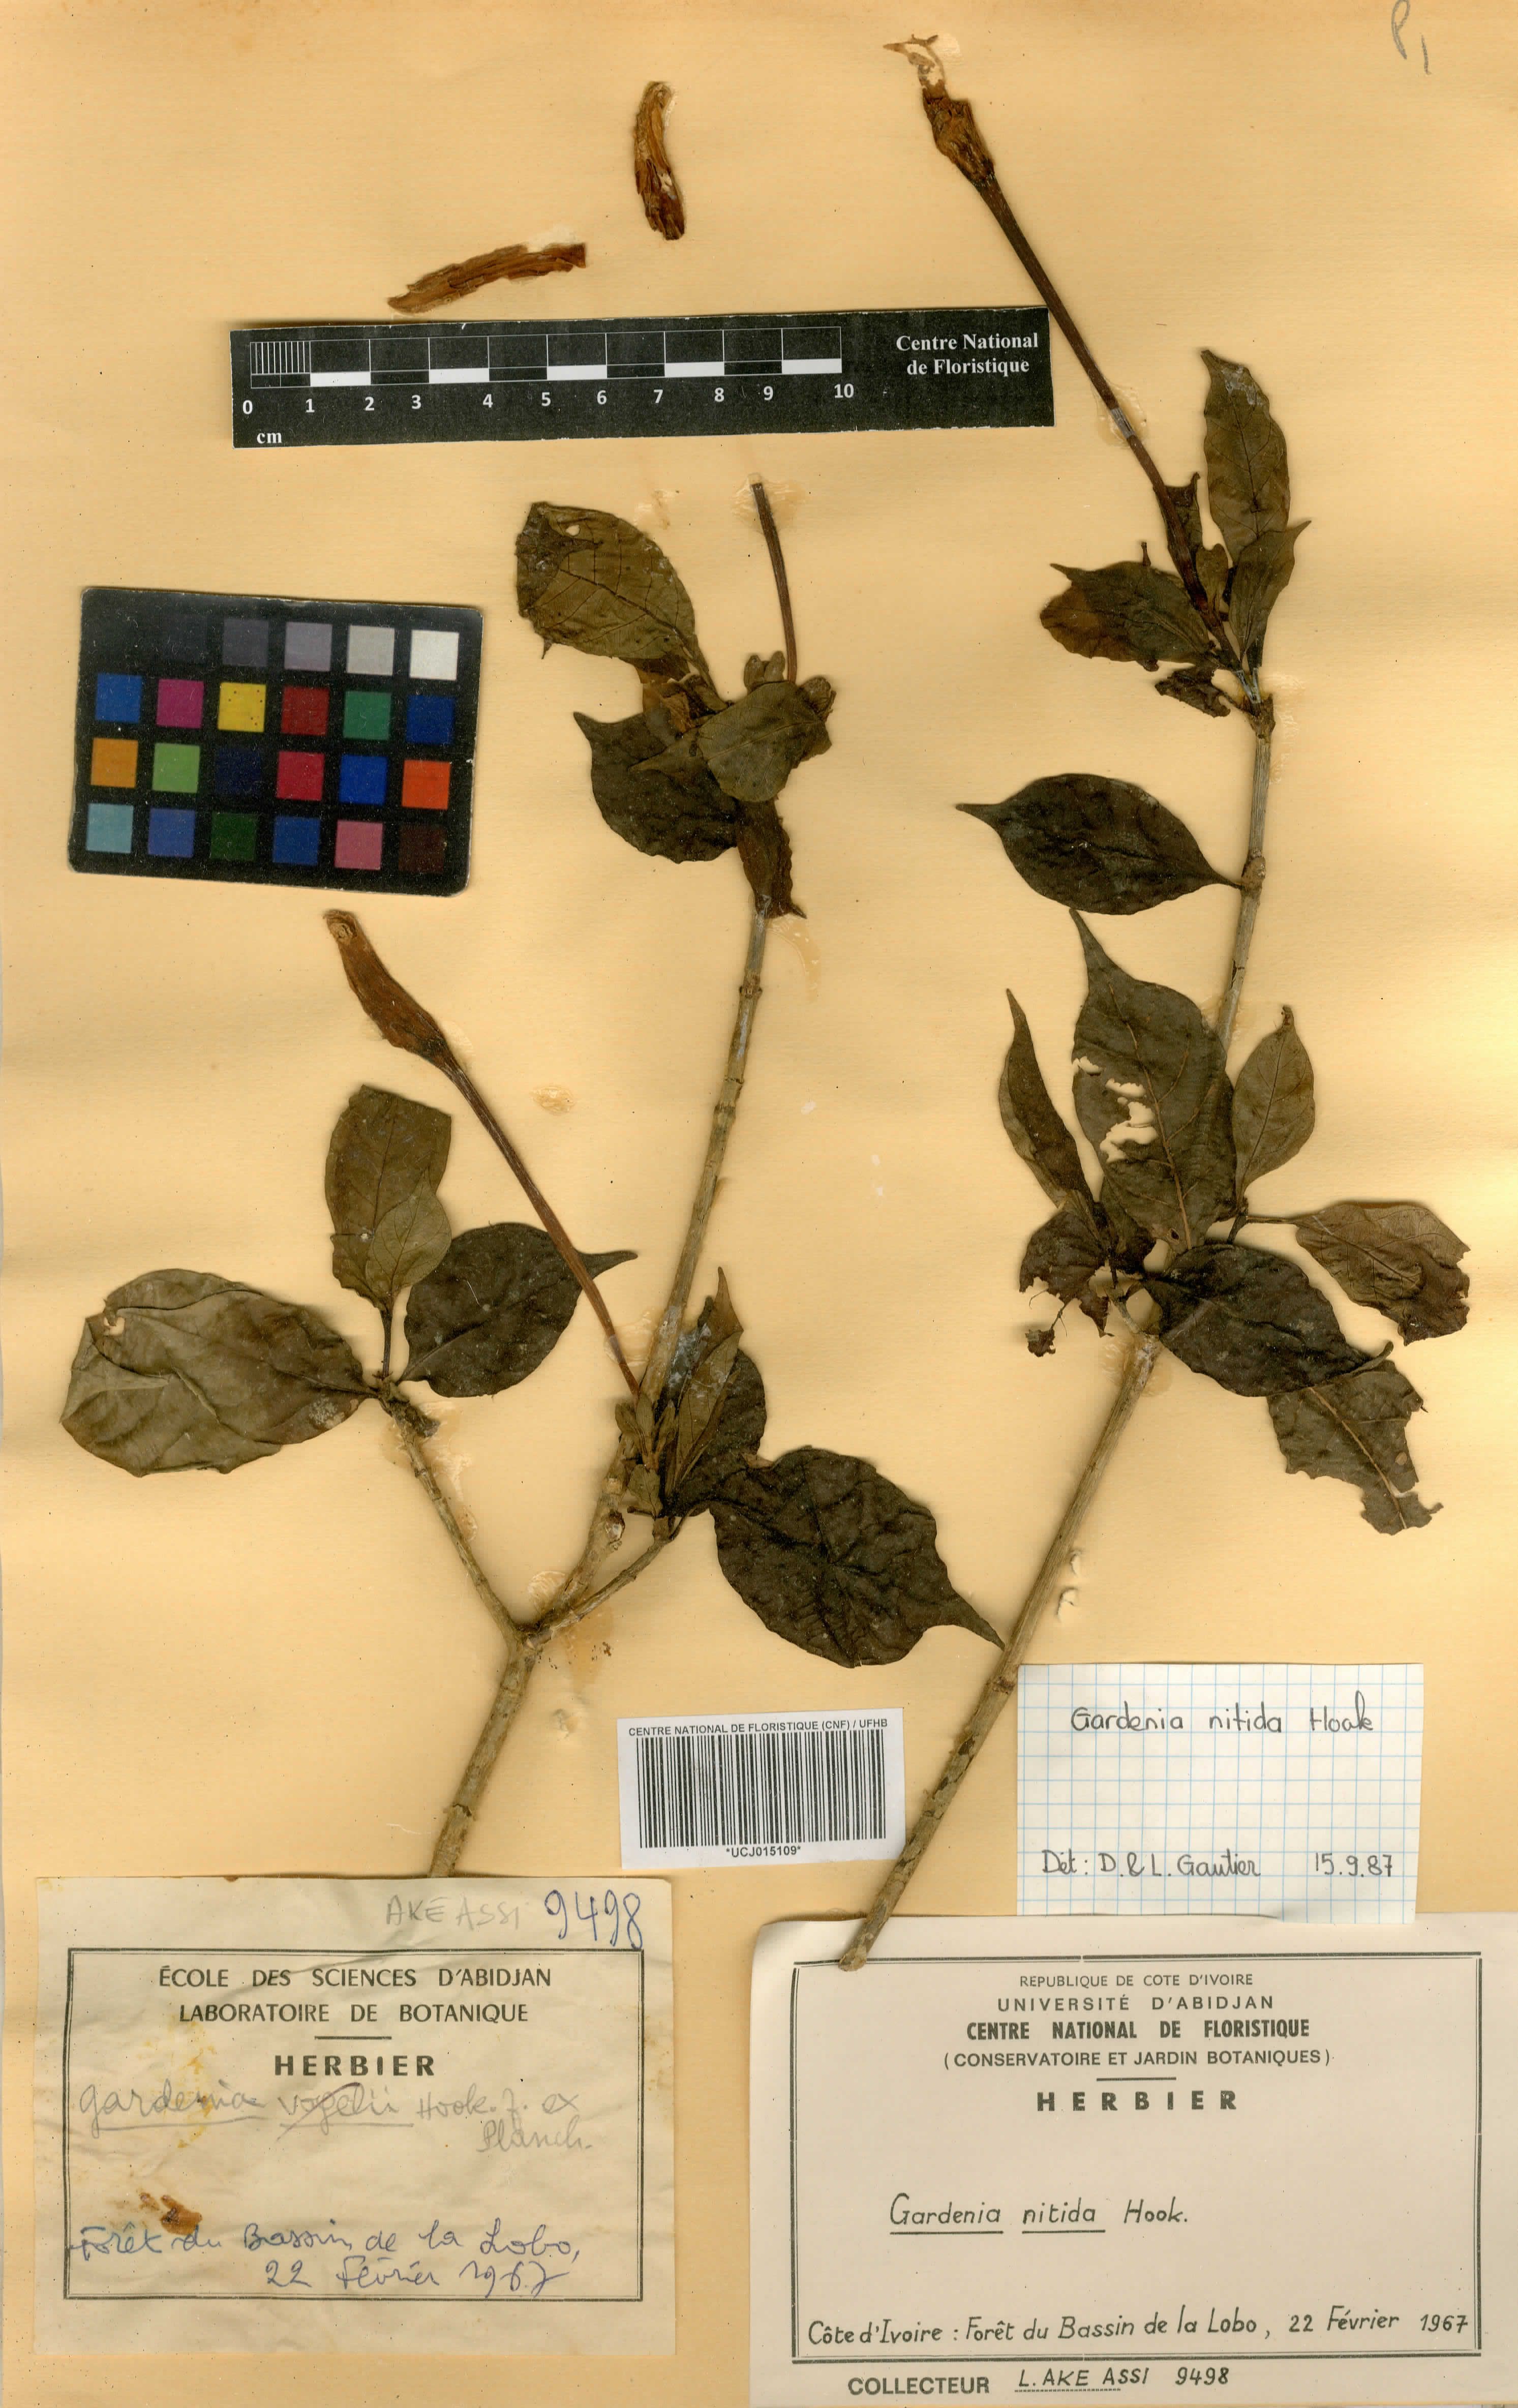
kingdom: Plantae
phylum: Tracheophyta
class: Magnoliopsida
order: Gentianales
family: Rubiaceae
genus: Gardenia
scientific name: Gardenia nitida
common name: Glossy-leaved gardenia
